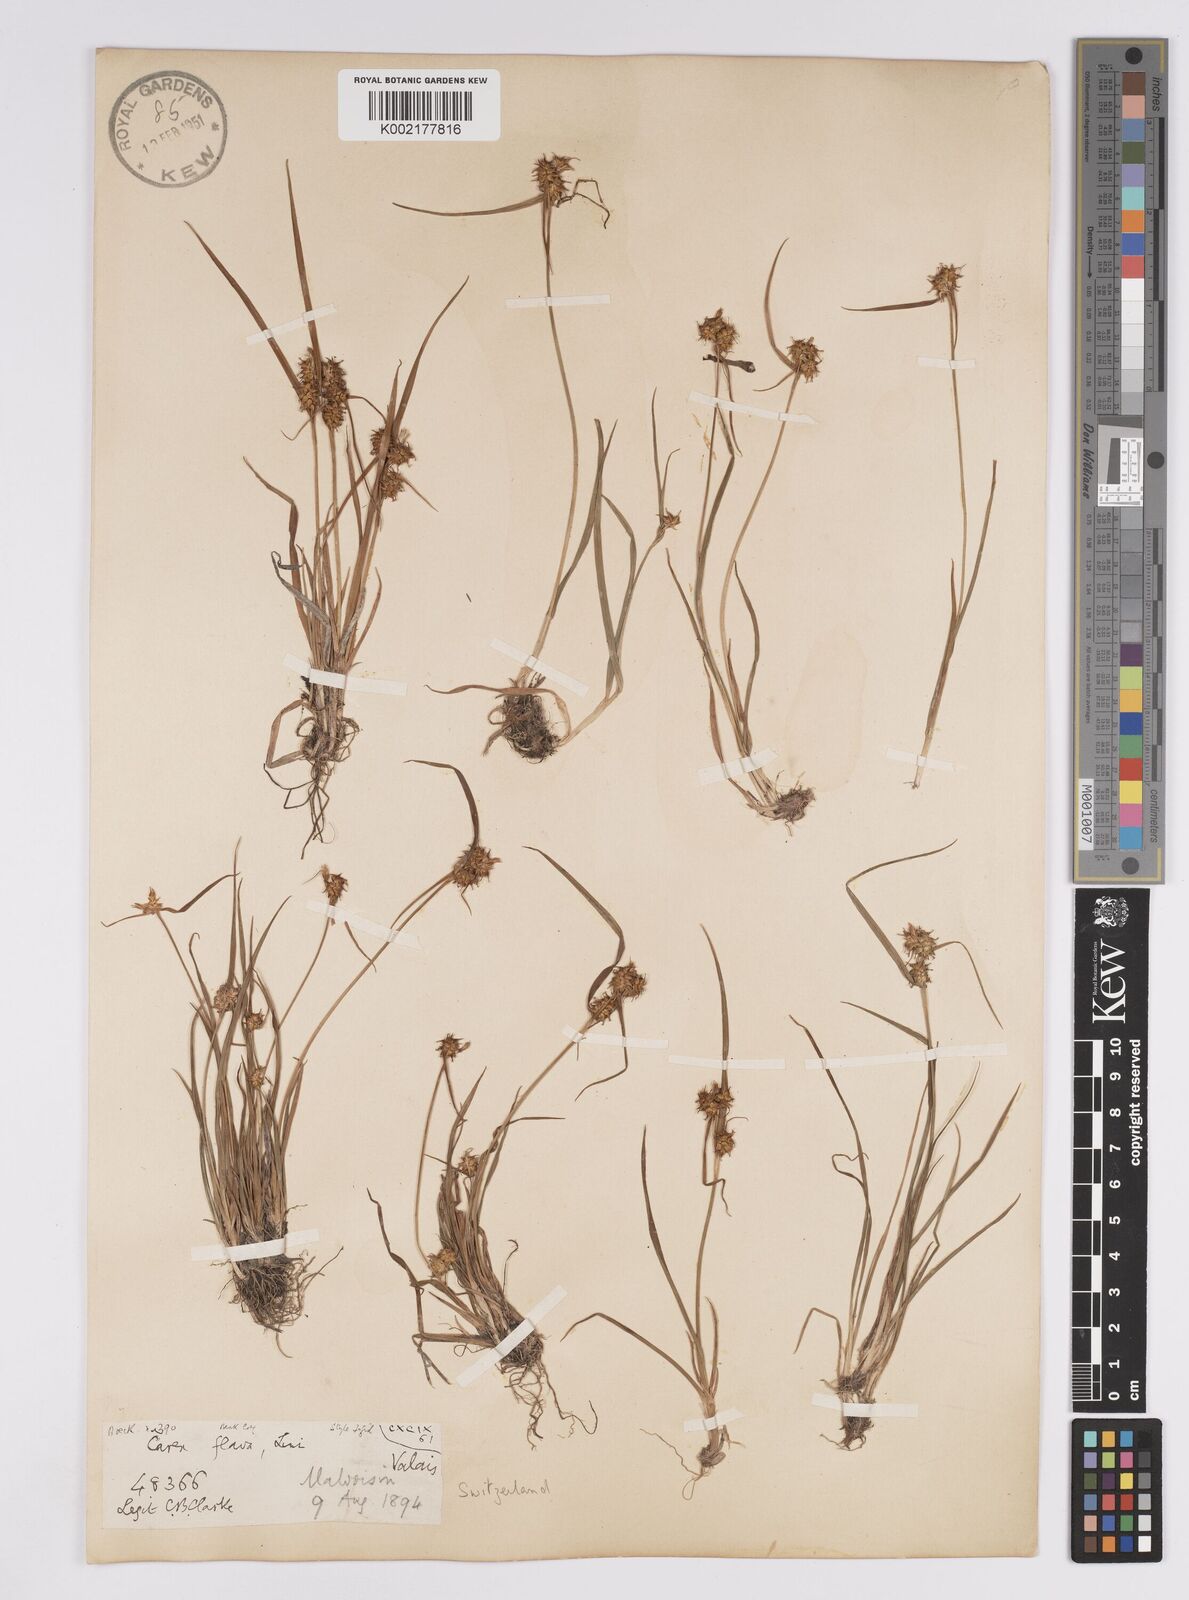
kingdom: Plantae
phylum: Tracheophyta
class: Liliopsida
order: Poales
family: Cyperaceae
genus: Carex
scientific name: Carex flava
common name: Large yellow-sedge
